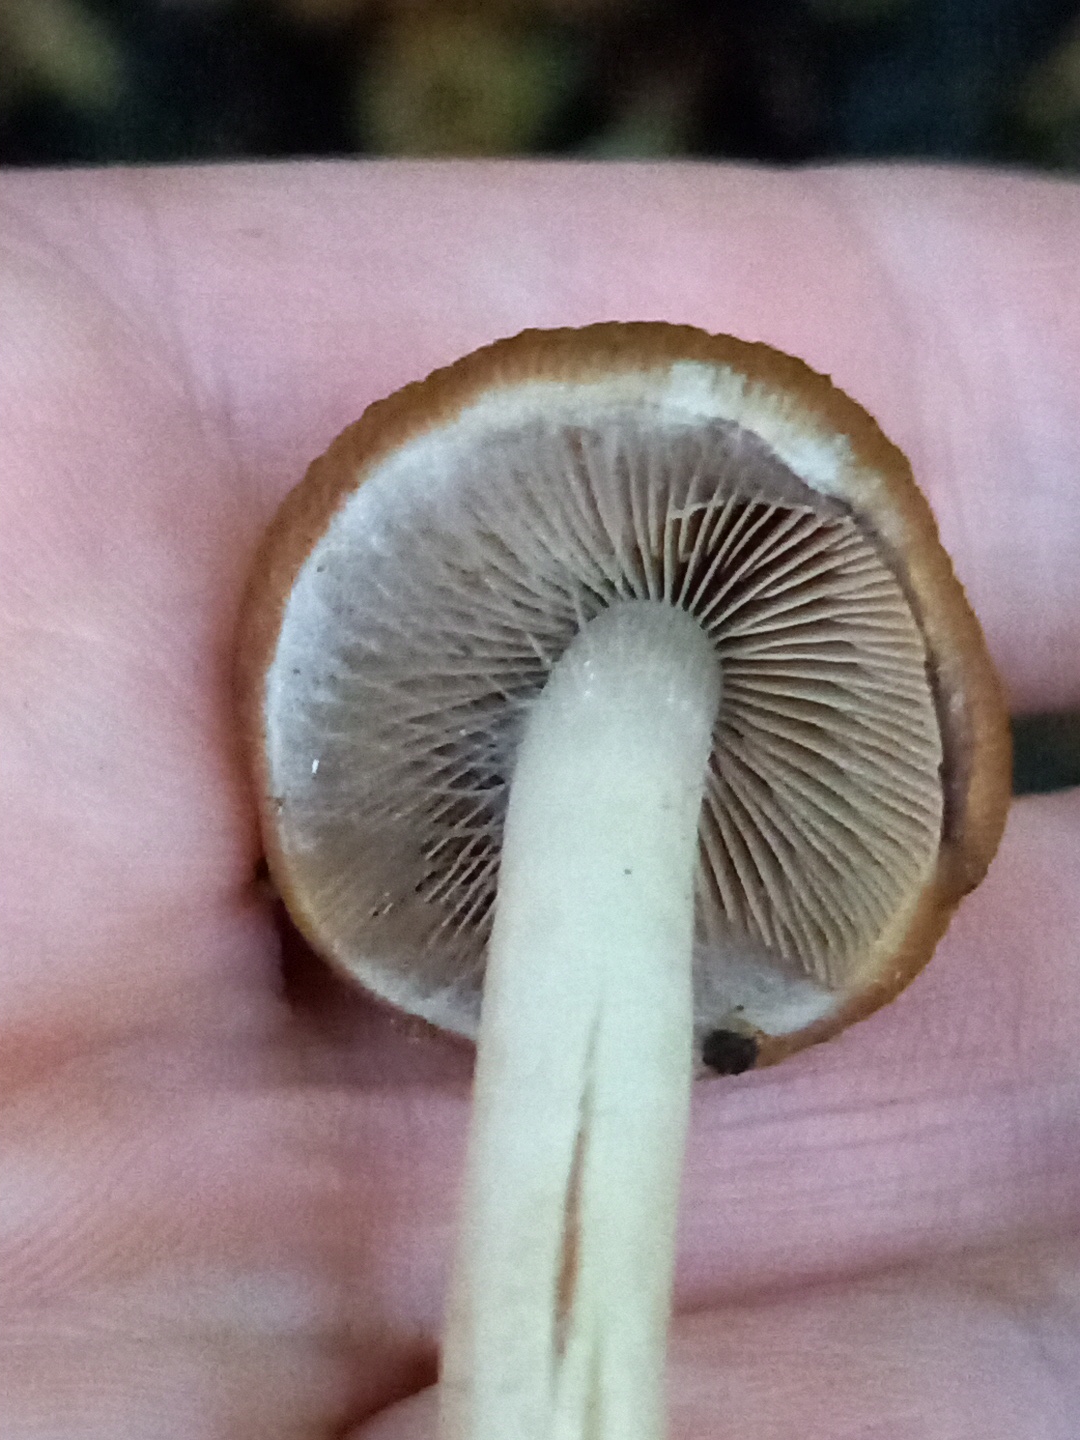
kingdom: Fungi
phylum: Basidiomycota
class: Agaricomycetes
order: Agaricales
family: Psathyrellaceae
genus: Psathyrella
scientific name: Psathyrella piluliformis
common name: lysstokket mørkhat
